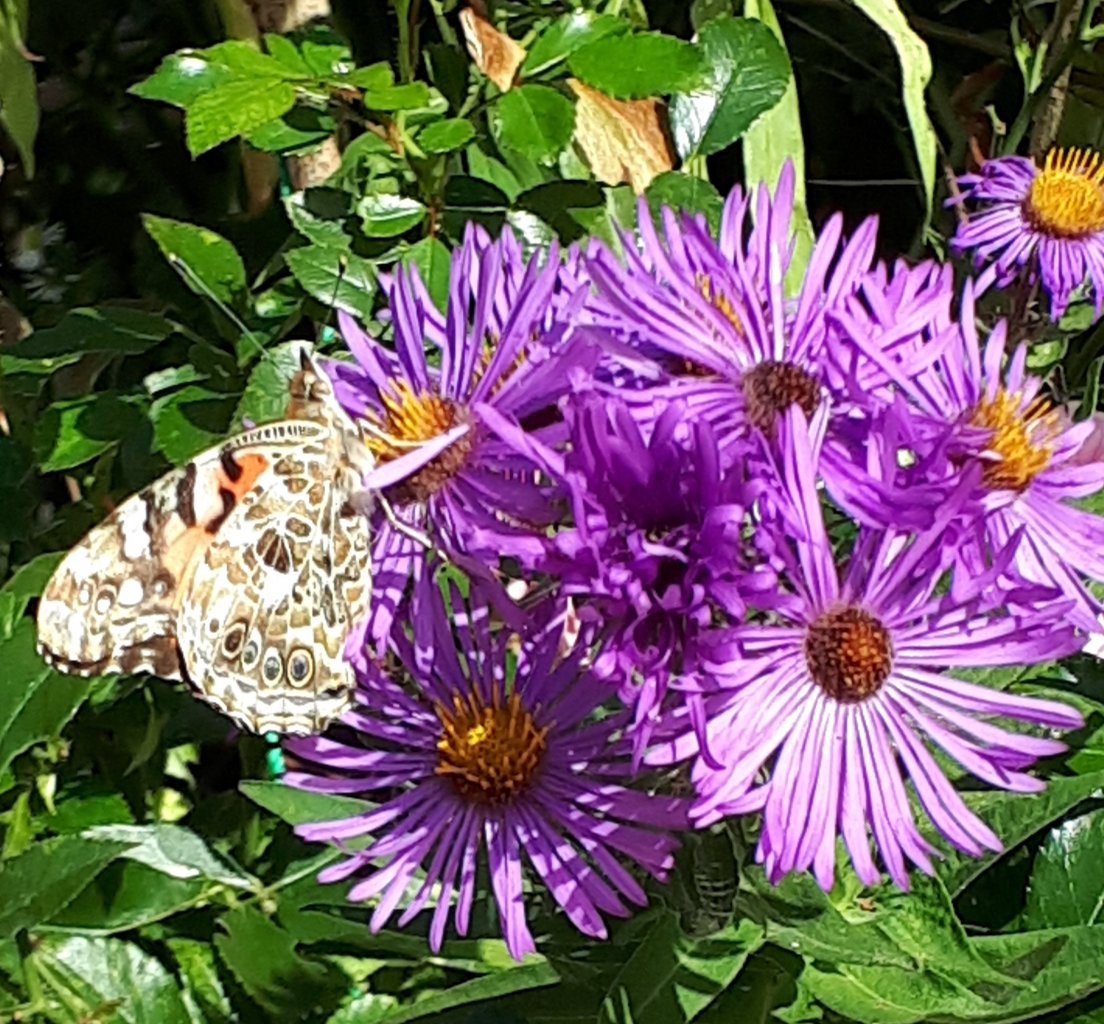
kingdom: Animalia
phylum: Arthropoda
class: Insecta
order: Lepidoptera
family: Nymphalidae
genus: Vanessa
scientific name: Vanessa virginiensis
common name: American Lady
